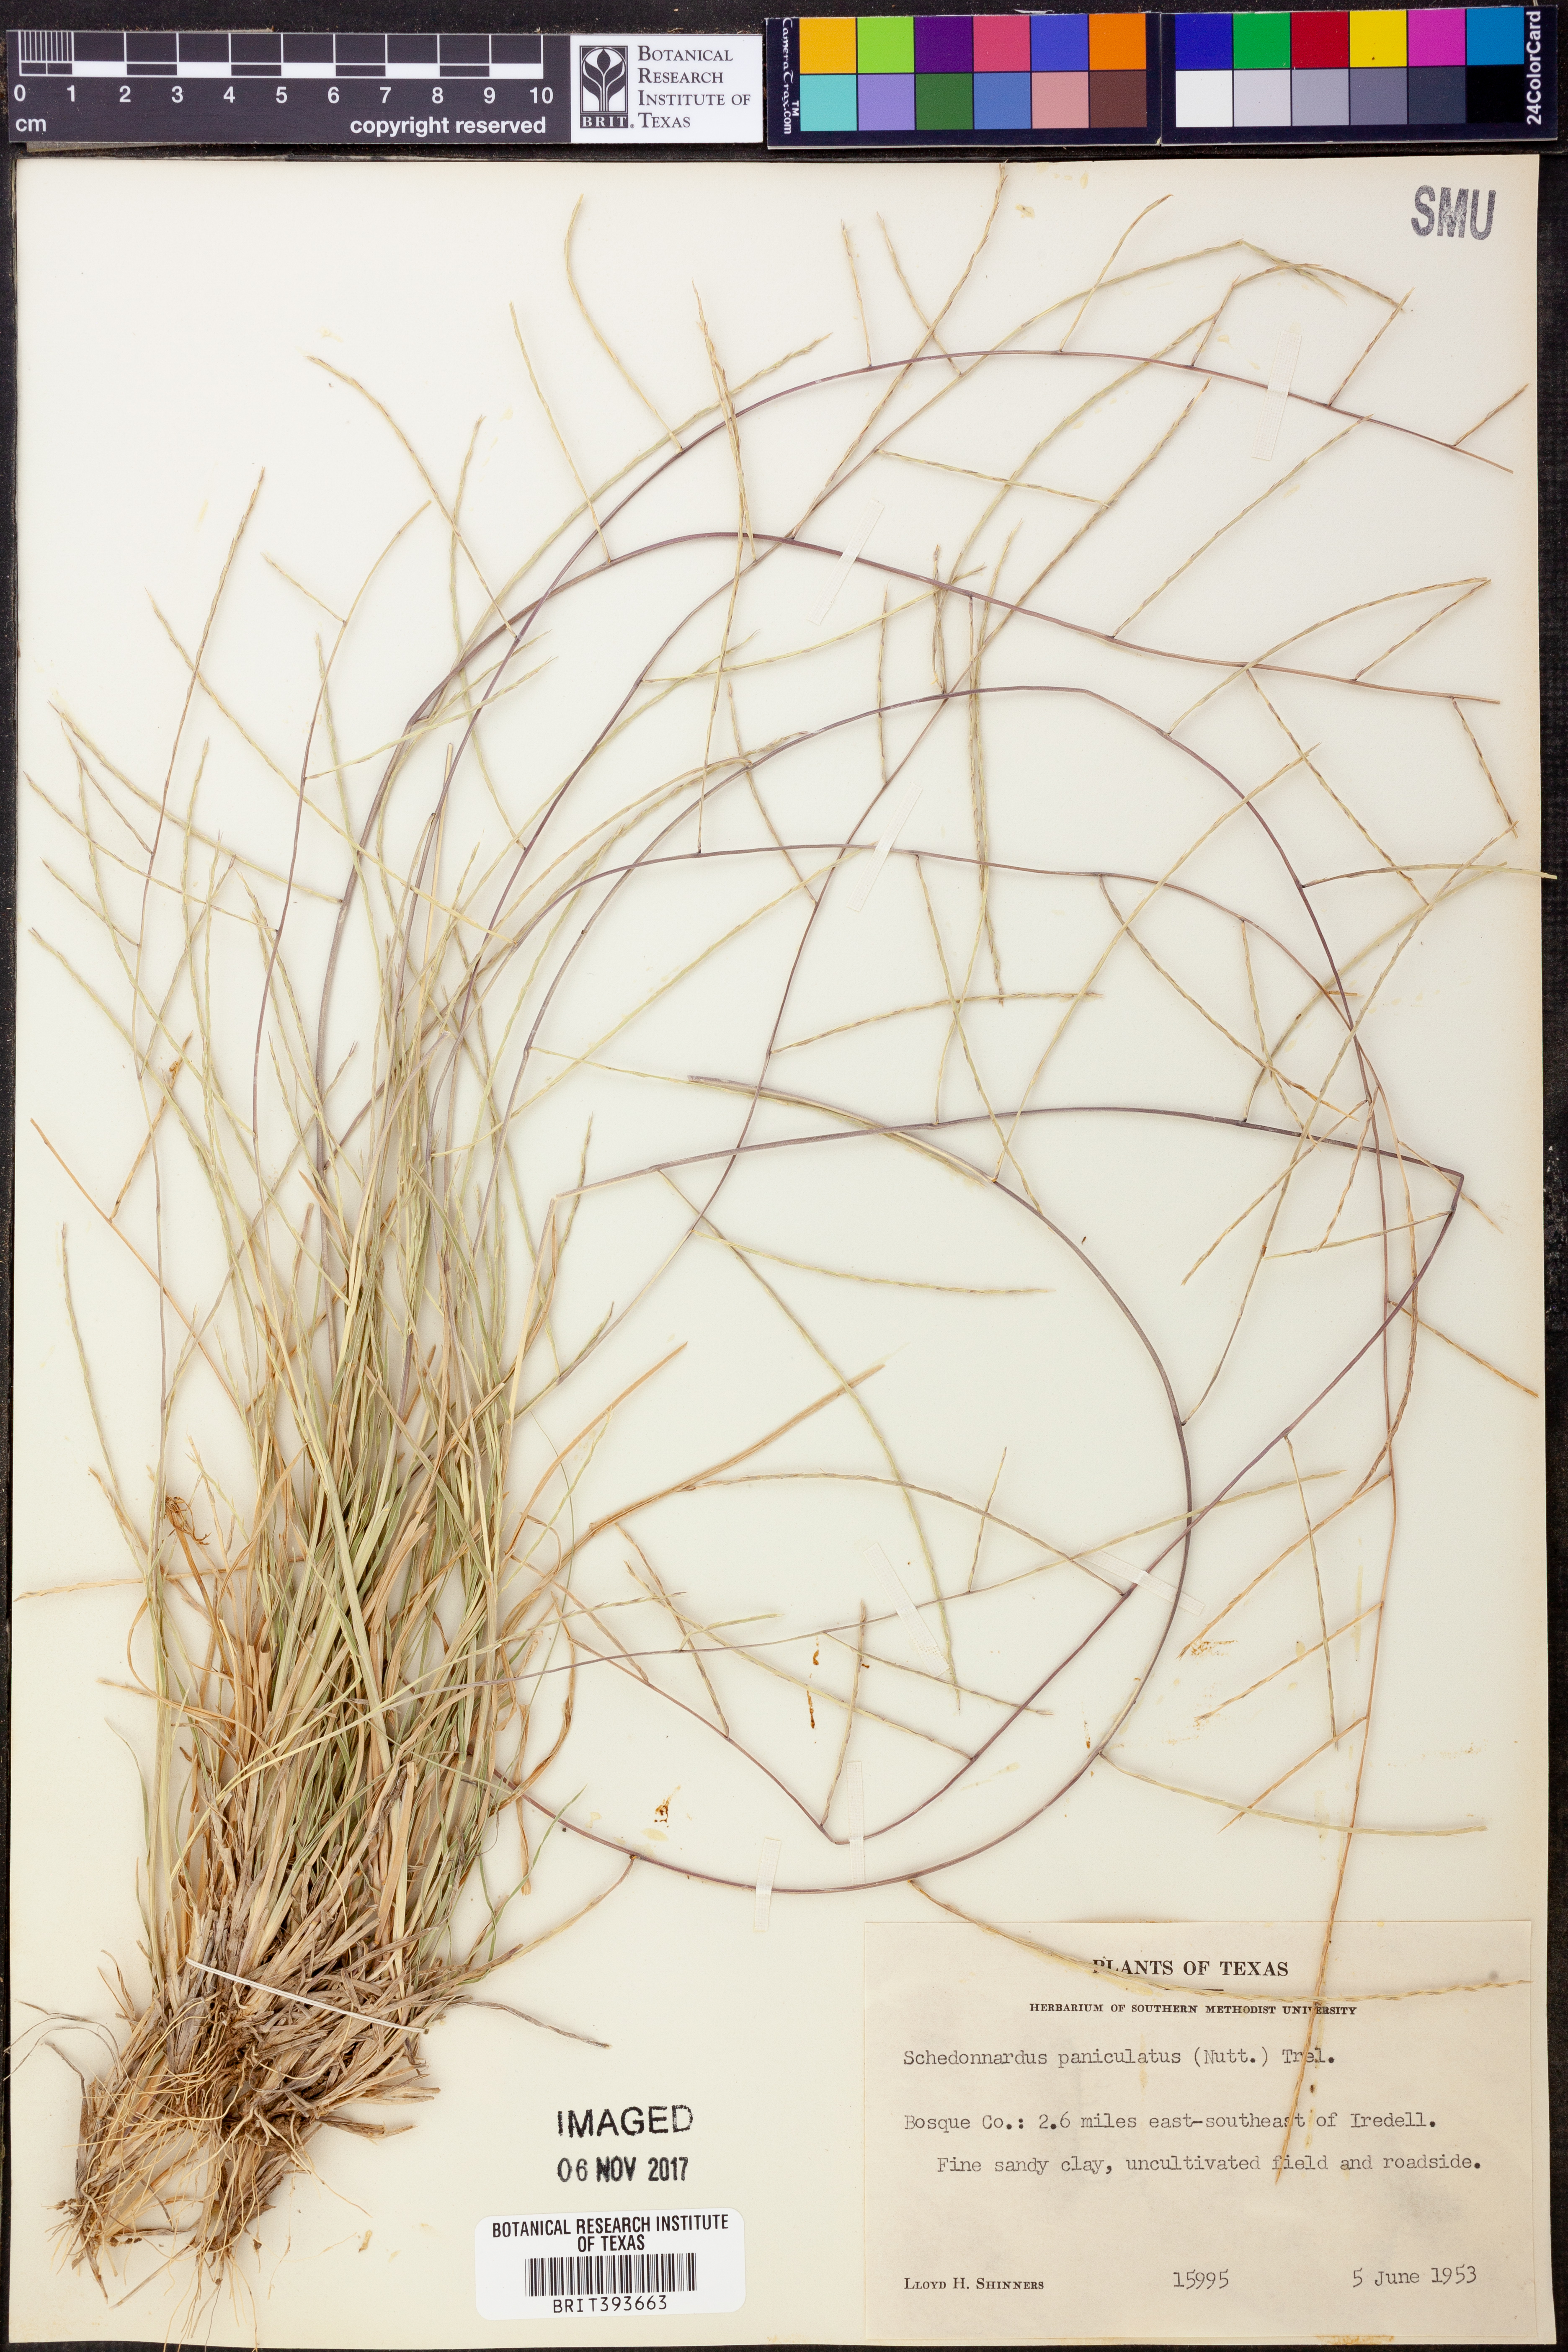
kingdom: Plantae
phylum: Tracheophyta
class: Liliopsida
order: Poales
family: Poaceae
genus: Muhlenbergia
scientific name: Muhlenbergia paniculata
